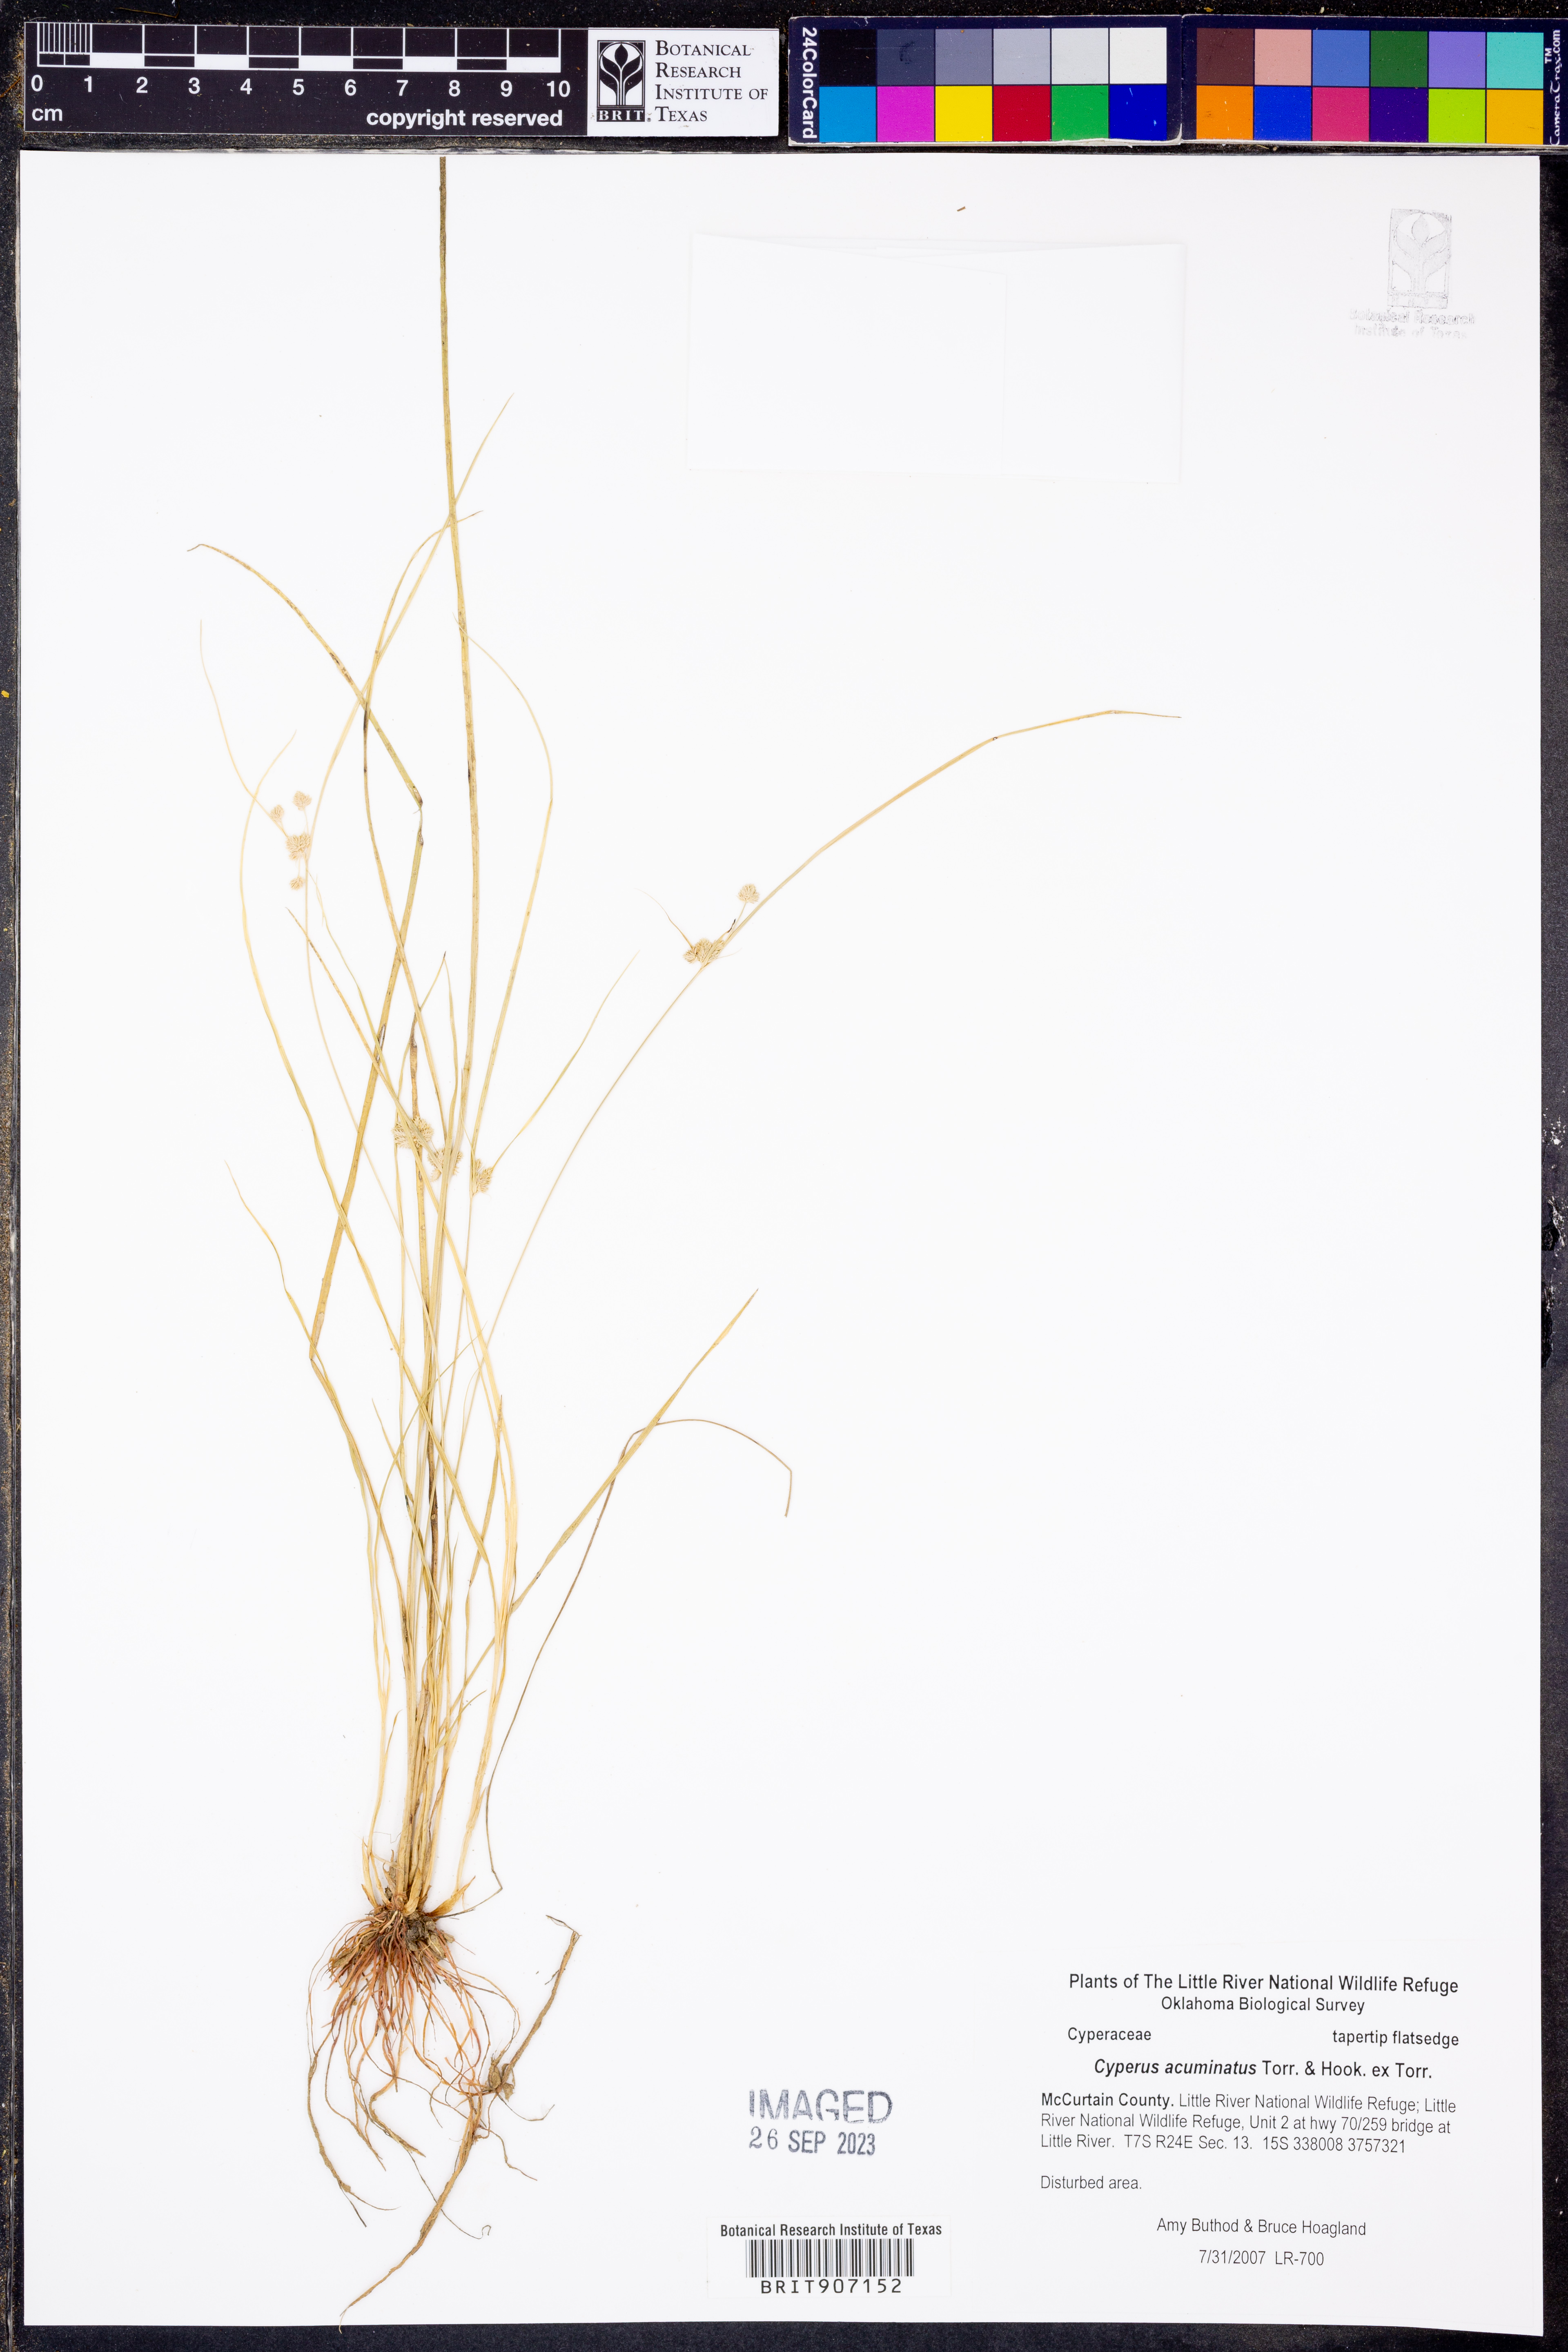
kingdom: Plantae
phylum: Tracheophyta
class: Liliopsida
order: Poales
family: Cyperaceae
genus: Cyperus
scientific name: Cyperus acuminatus
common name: Short-pointed cyperus
